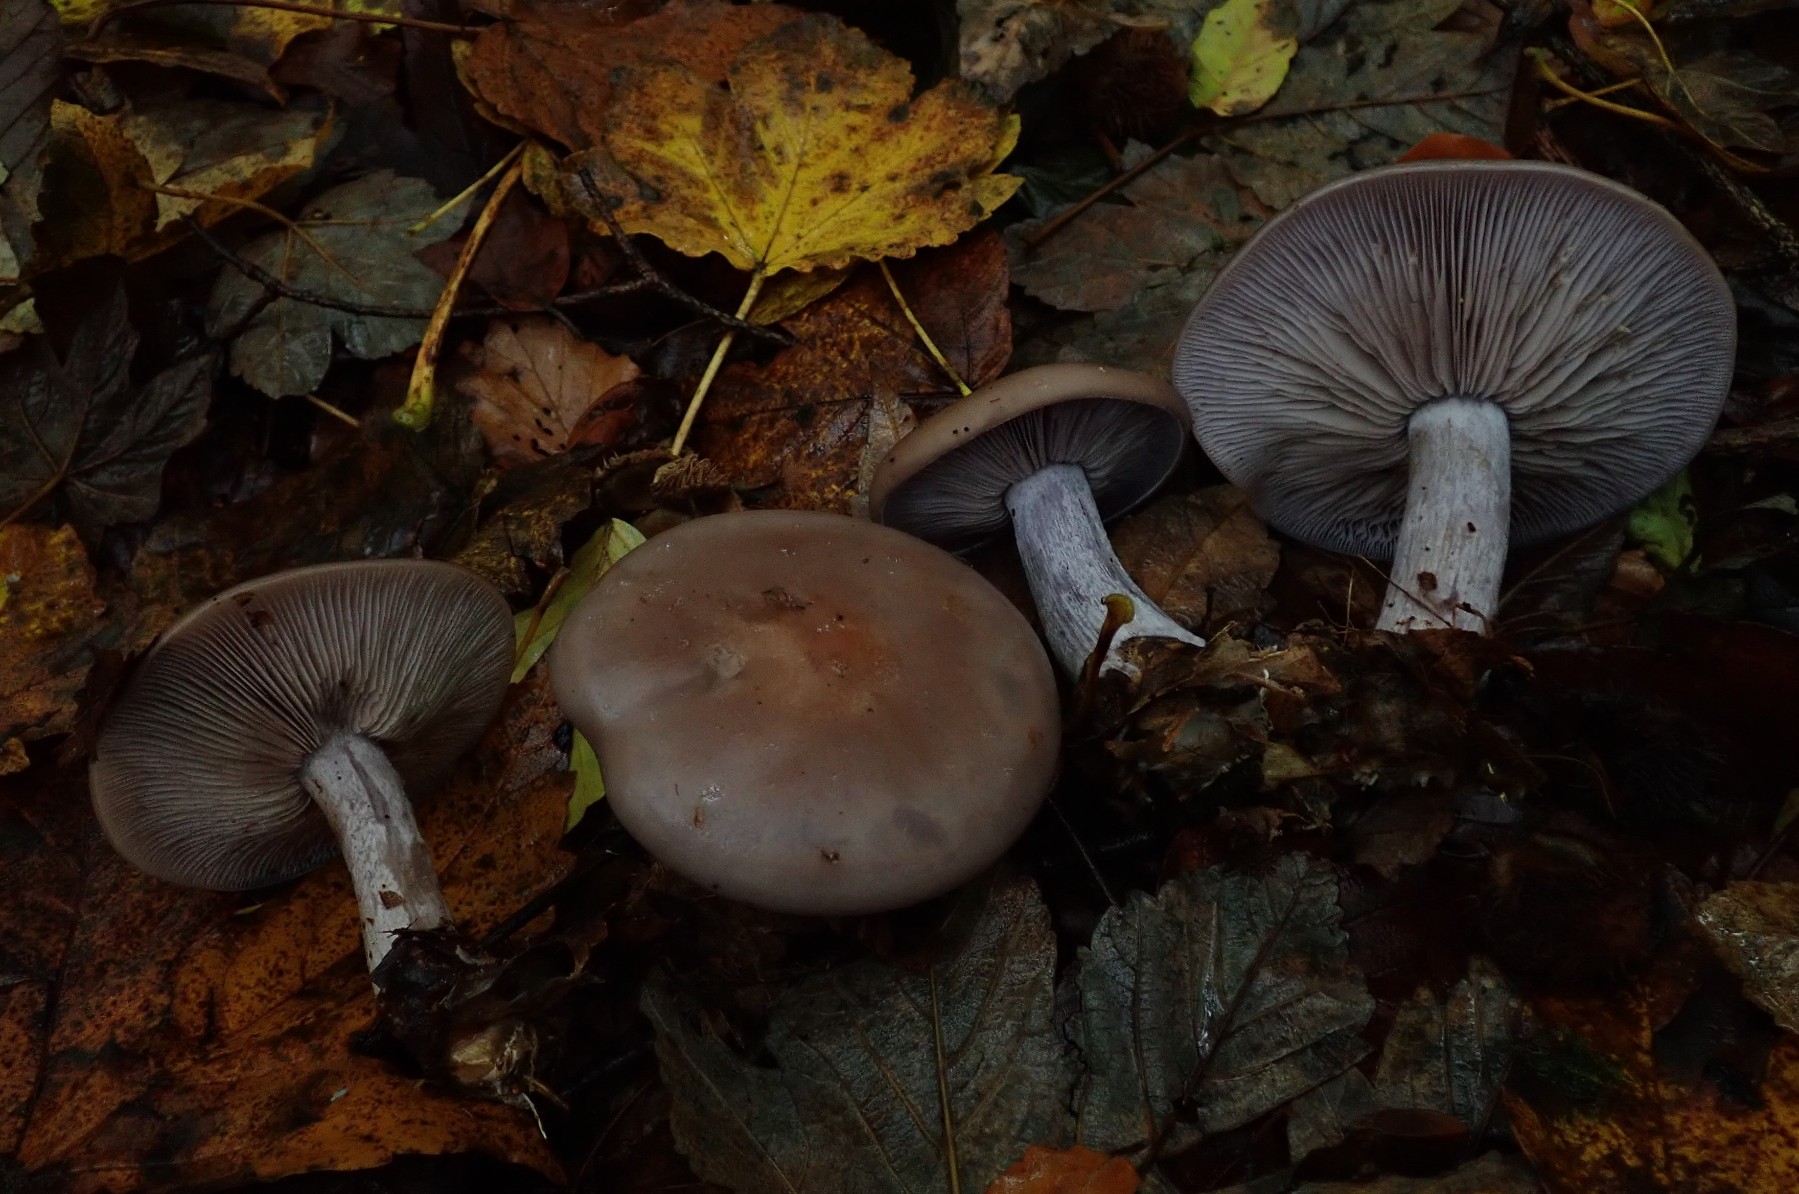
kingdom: Fungi
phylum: Basidiomycota
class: Agaricomycetes
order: Agaricales
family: Tricholomataceae
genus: Lepista
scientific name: Lepista nuda
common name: violet hekseringshat
